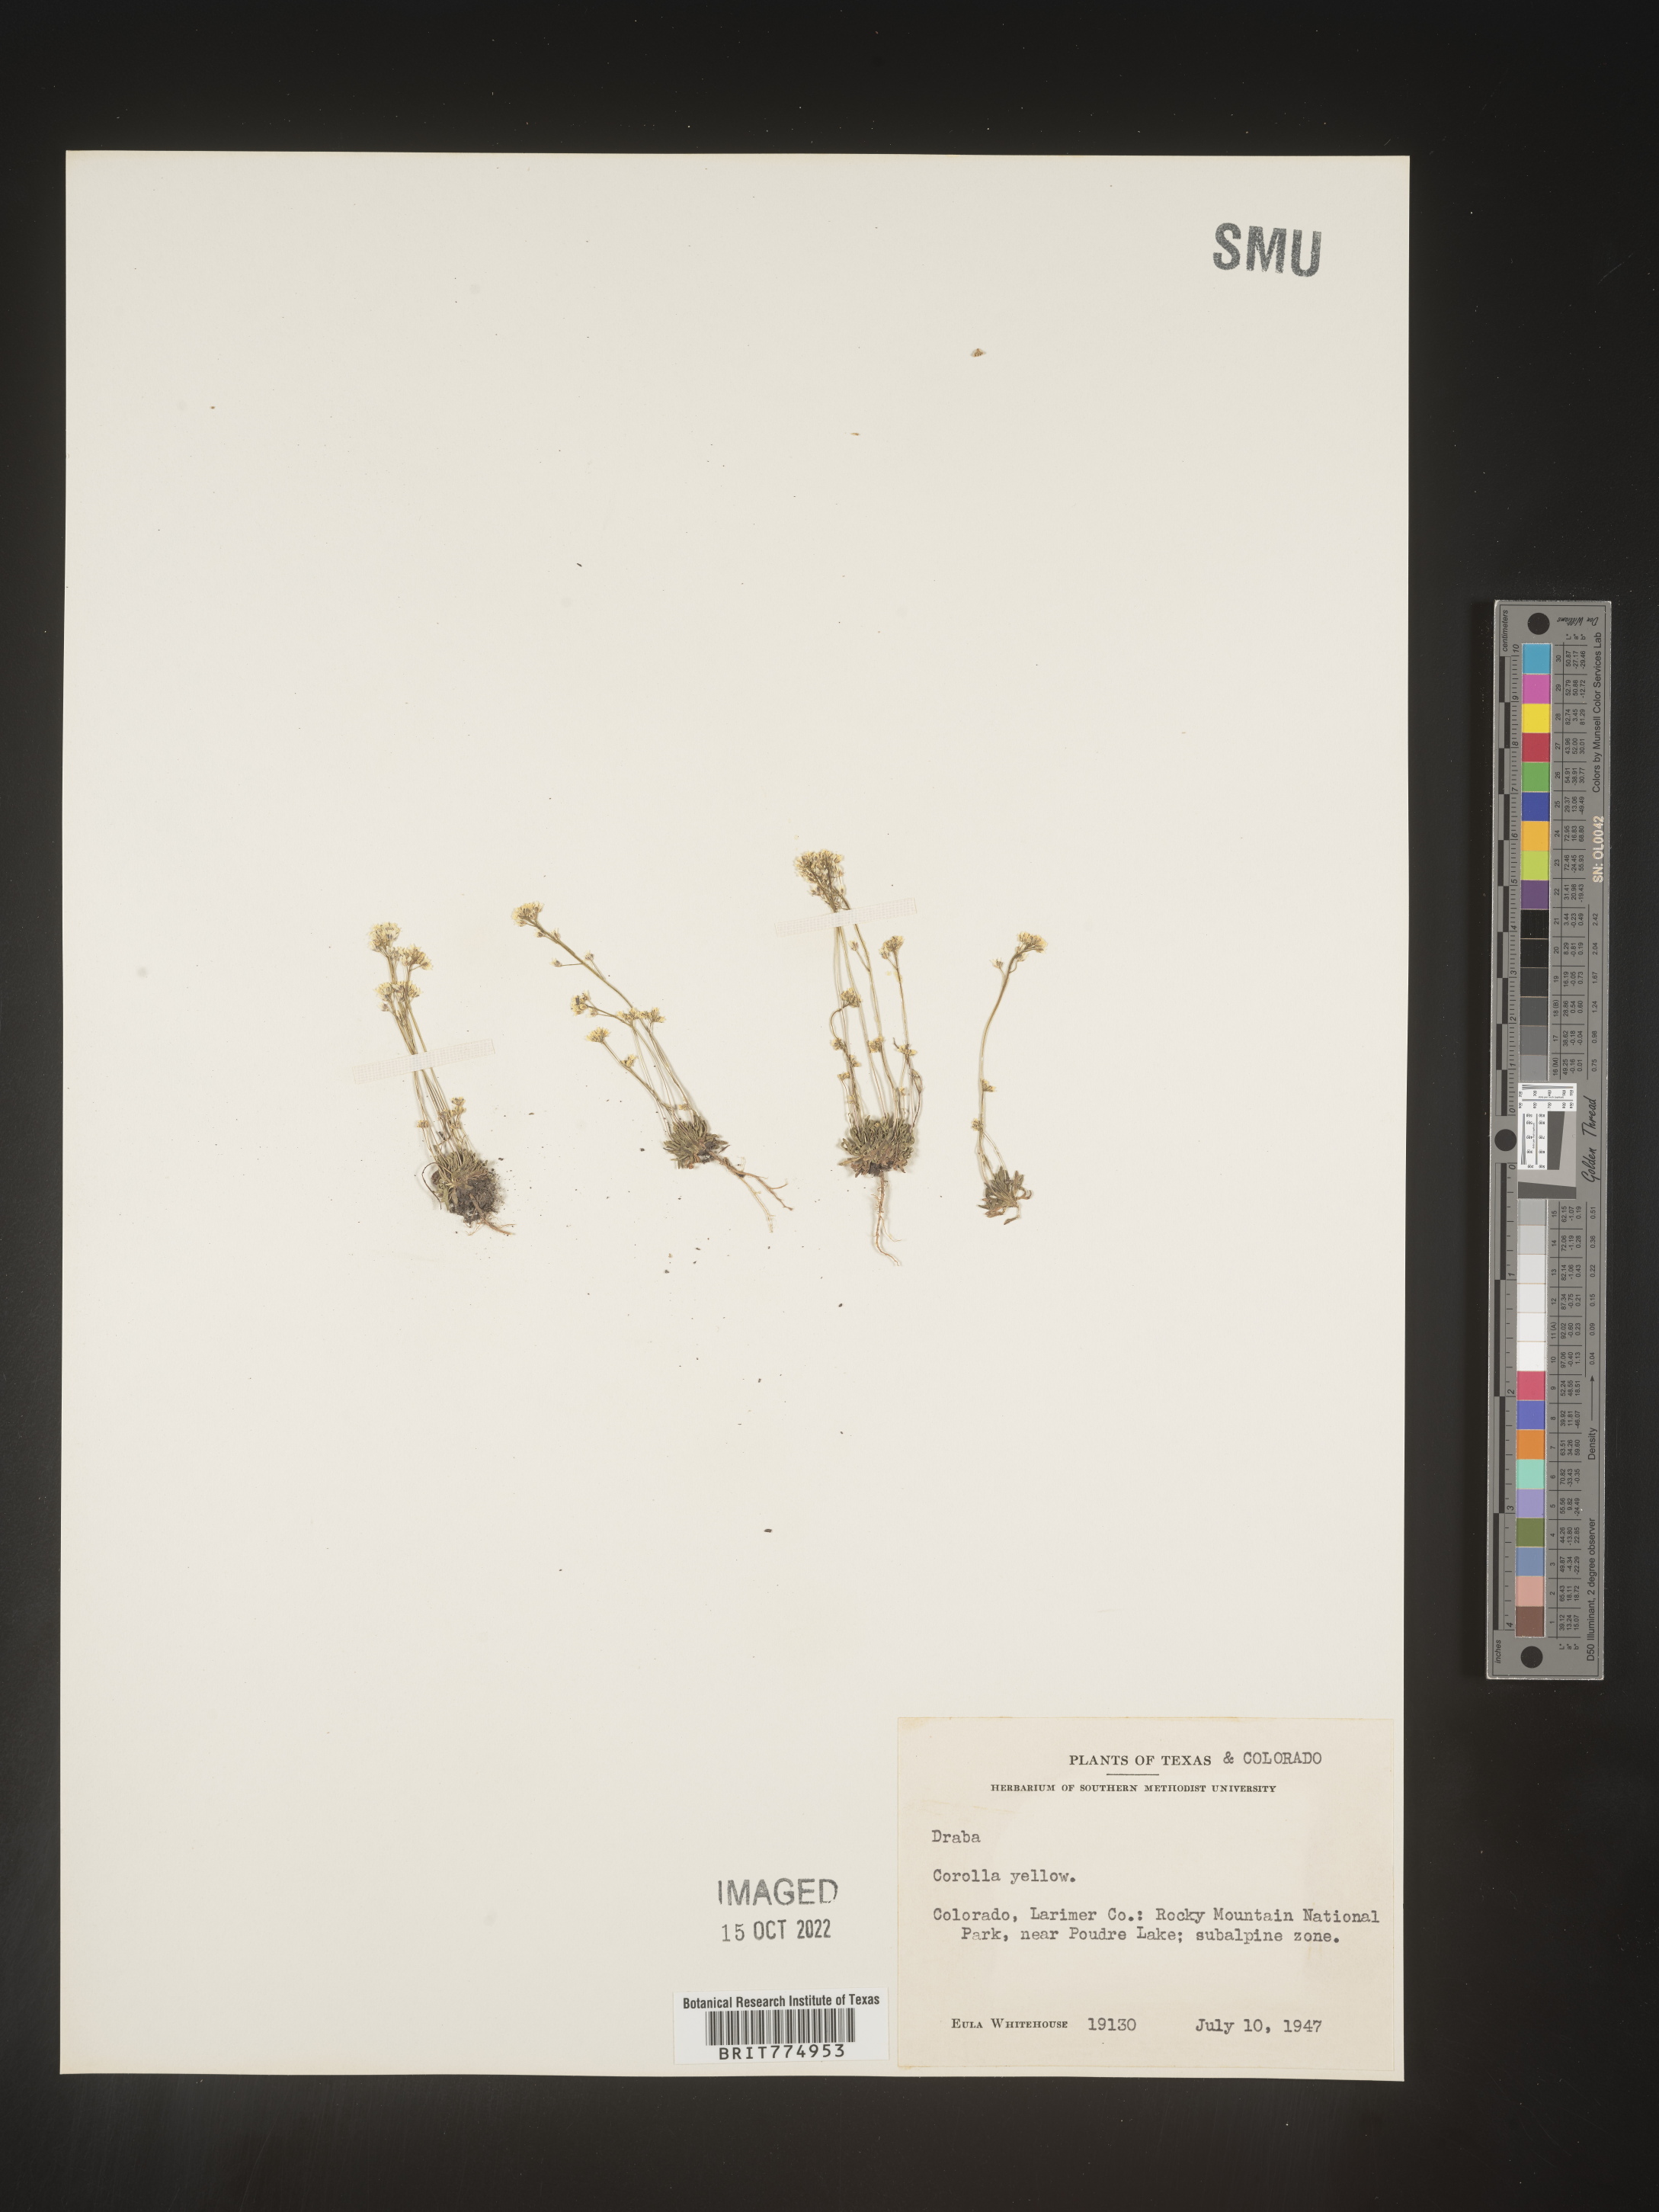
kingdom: Plantae
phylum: Tracheophyta
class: Magnoliopsida
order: Brassicales
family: Brassicaceae
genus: Draba
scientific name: Draba
